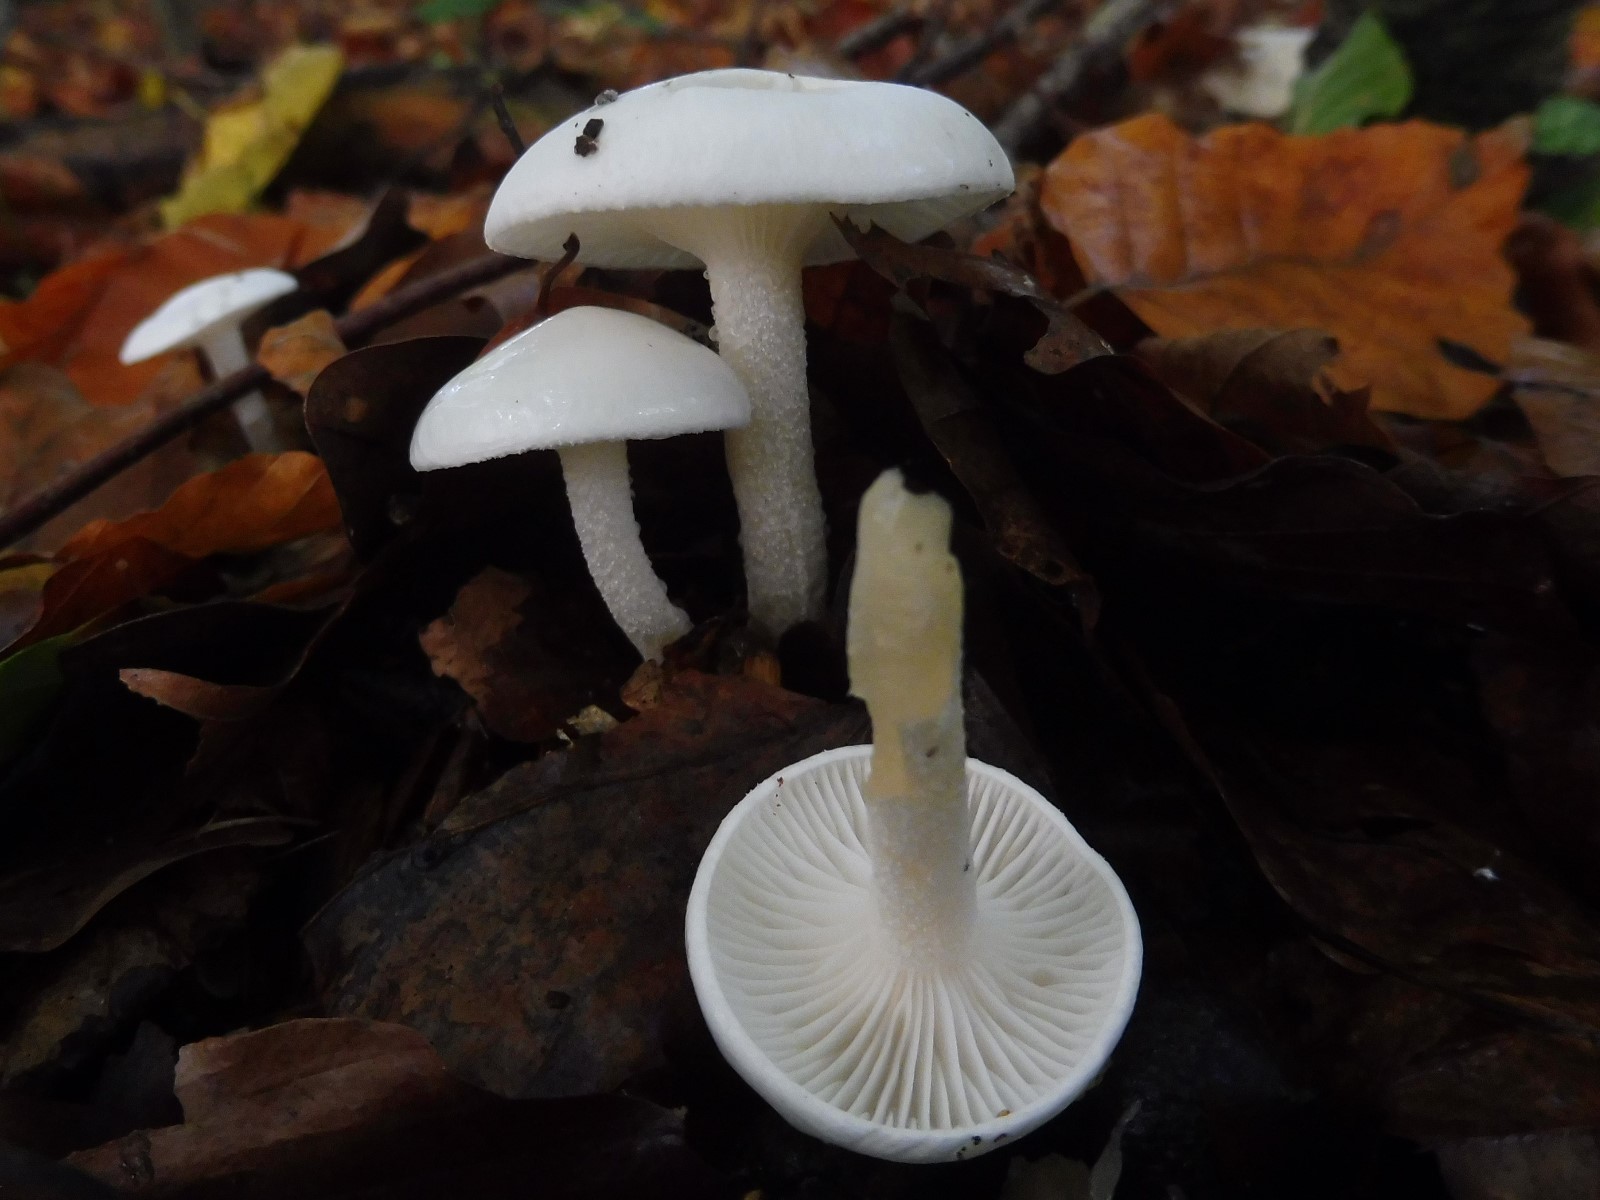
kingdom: Fungi
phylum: Basidiomycota
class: Agaricomycetes
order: Agaricales
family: Hygrophoraceae
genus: Hygrophorus
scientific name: Hygrophorus eburneus
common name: elfenbens-sneglehat
